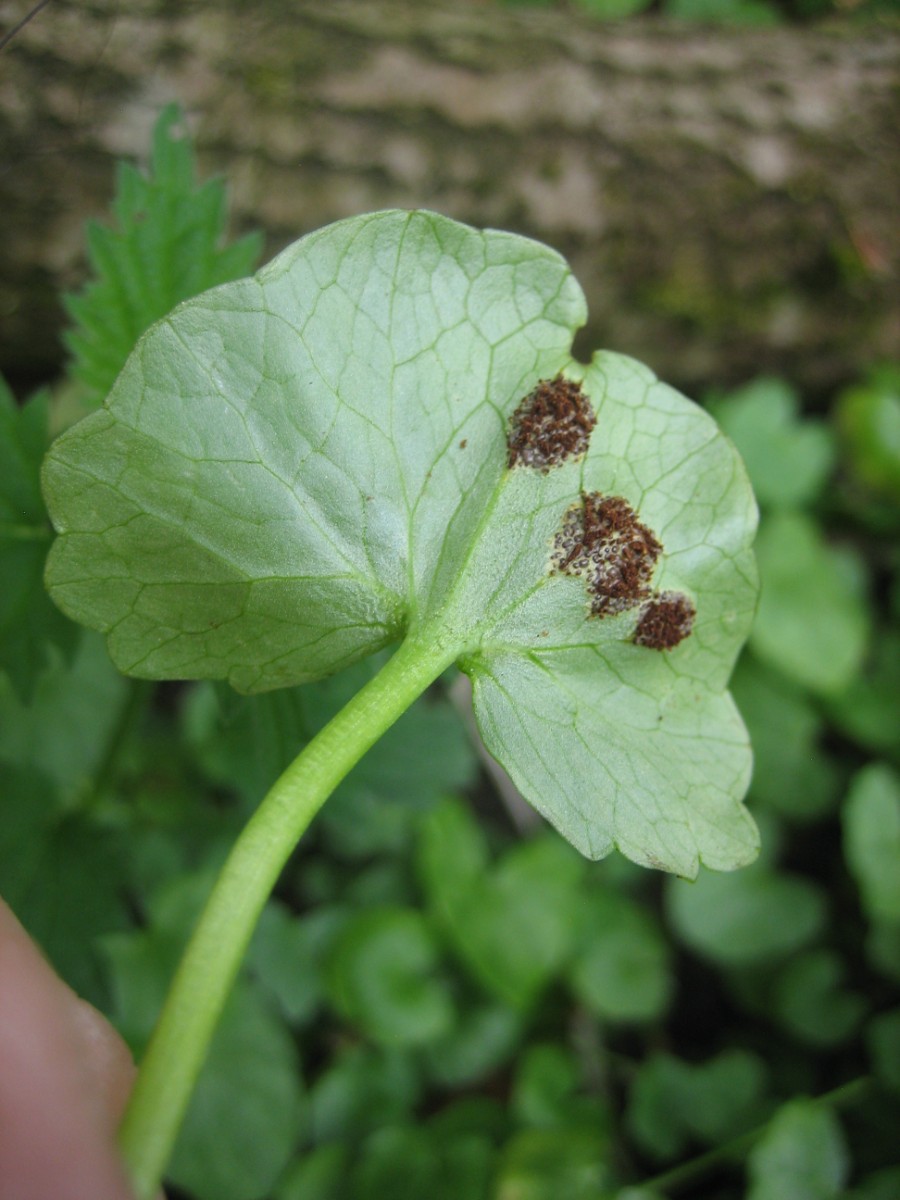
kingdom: Fungi
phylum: Basidiomycota
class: Pucciniomycetes
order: Pucciniales
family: Pucciniaceae
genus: Uromyces
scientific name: Uromyces ficariae
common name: vorterod-encellerust
